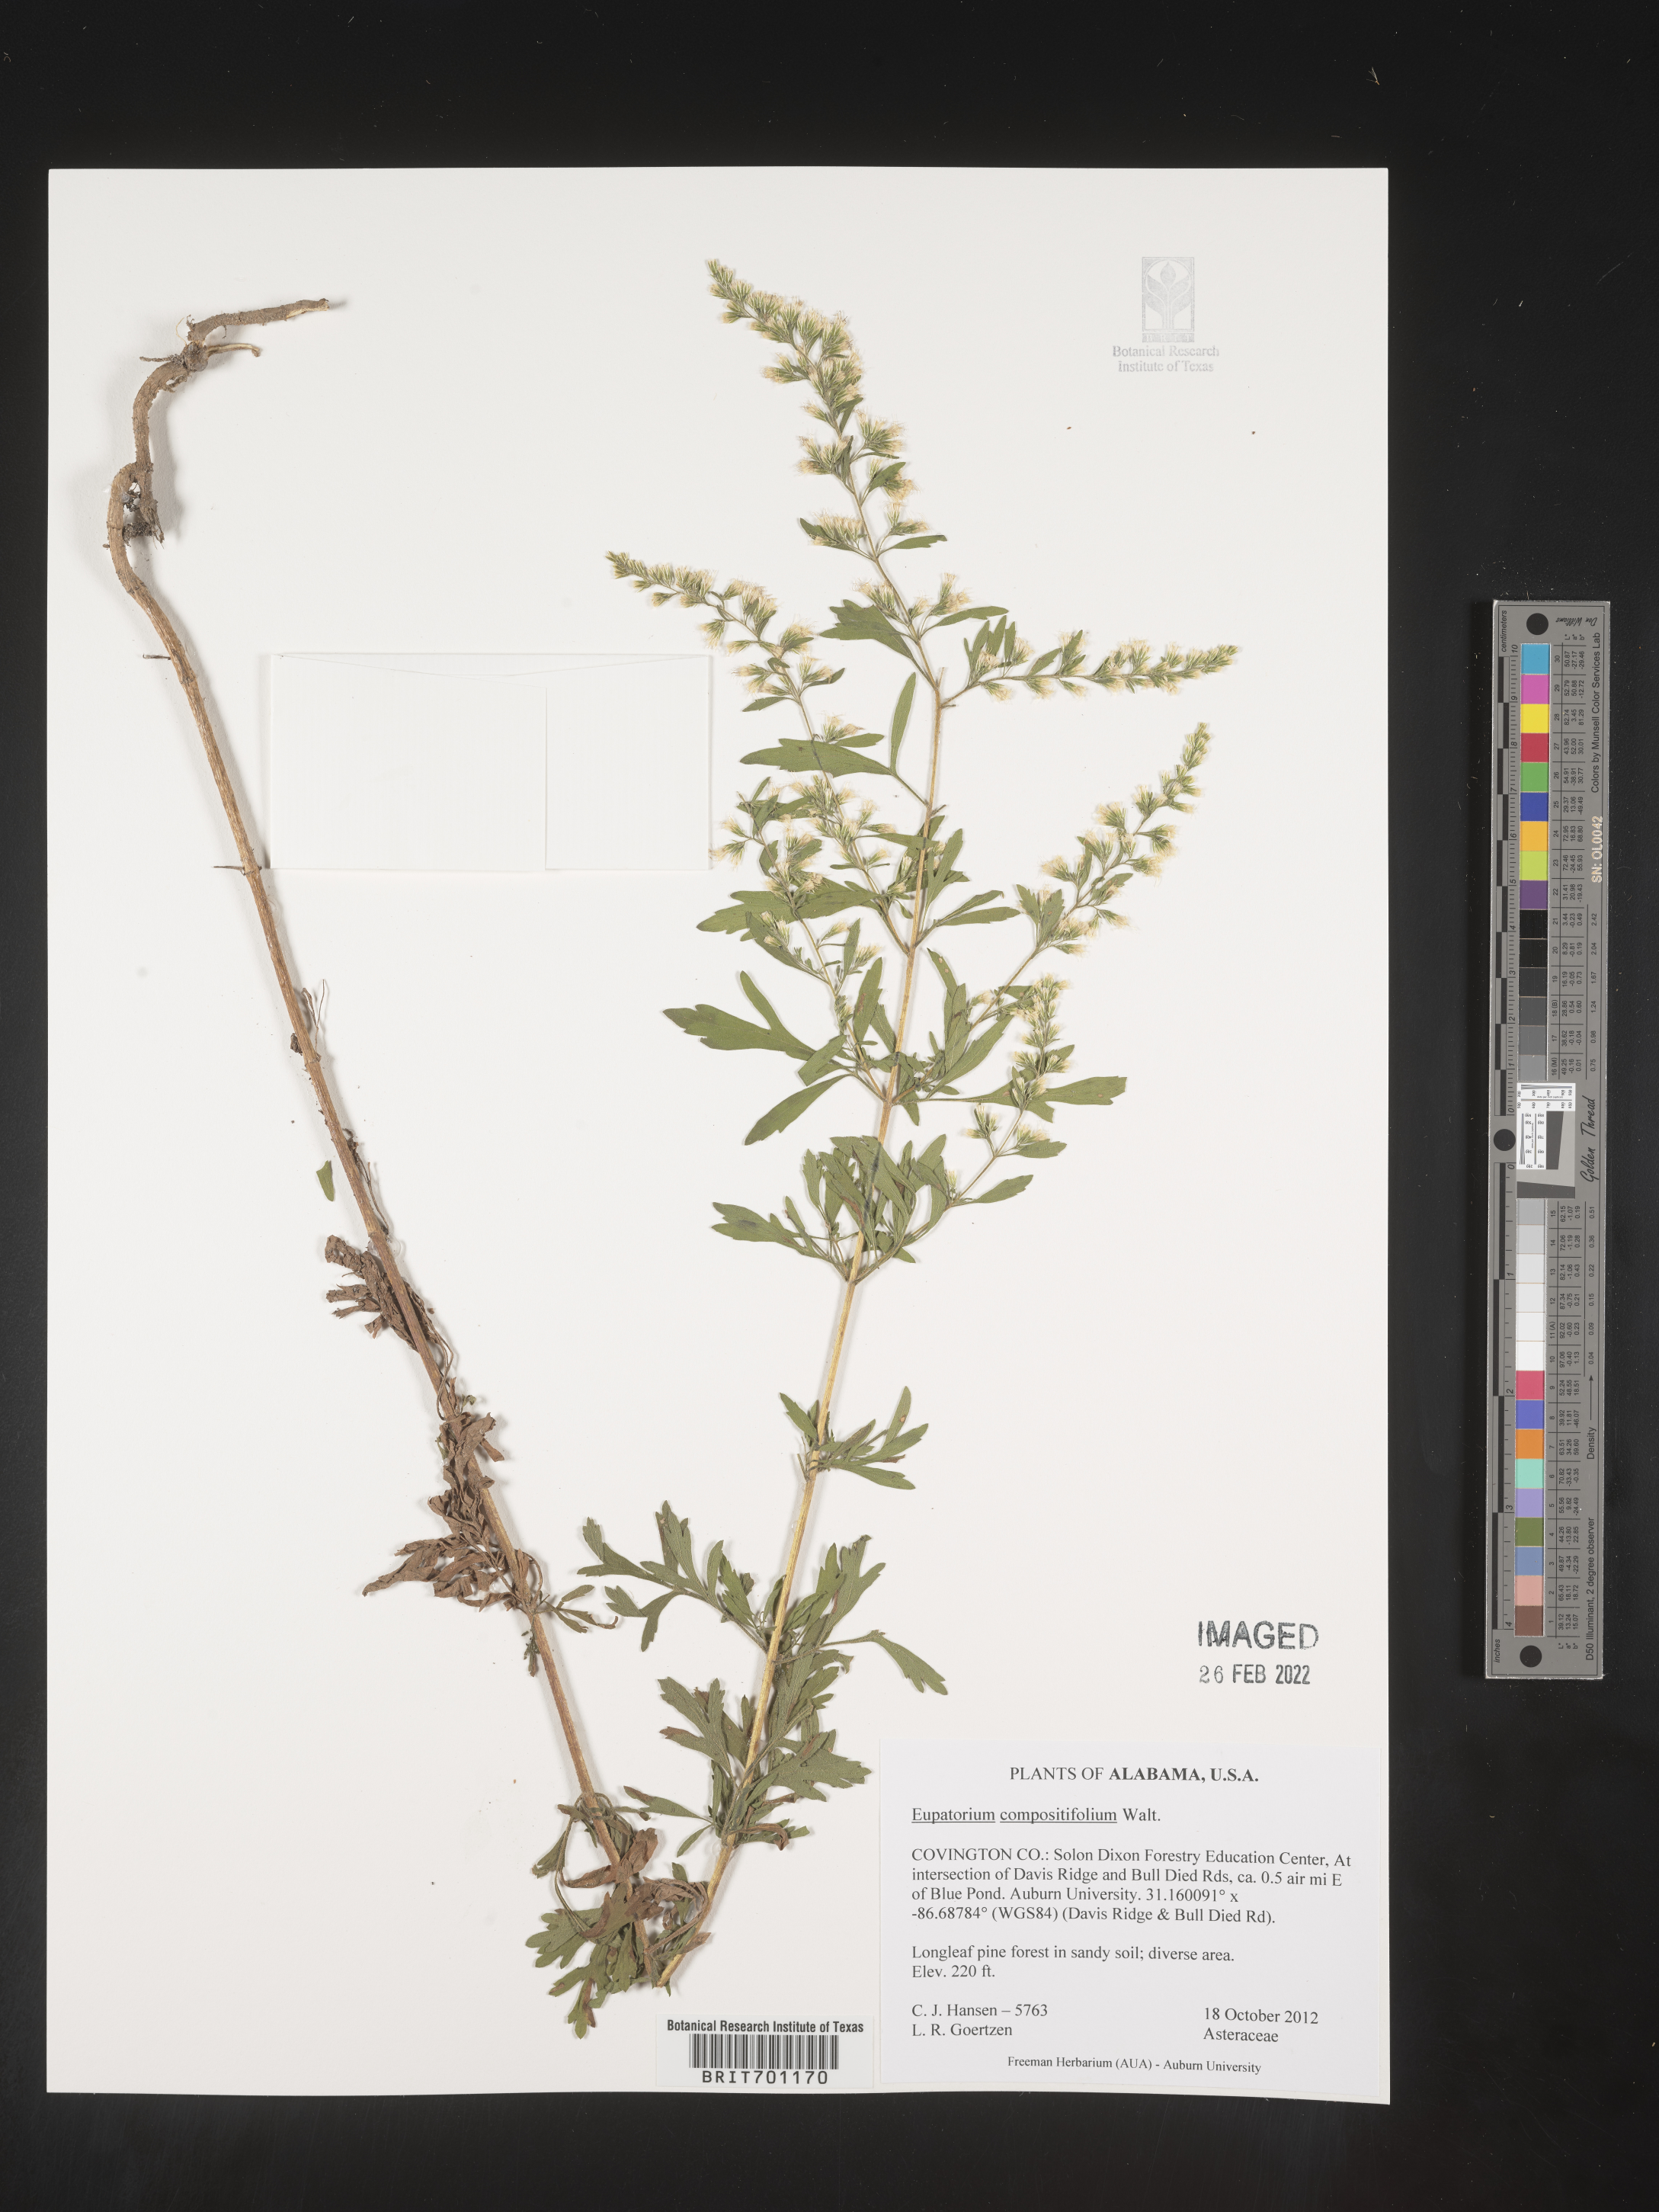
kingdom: Plantae
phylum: Tracheophyta
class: Magnoliopsida
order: Asterales
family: Asteraceae
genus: Eupatorium
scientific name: Eupatorium compositifolium
